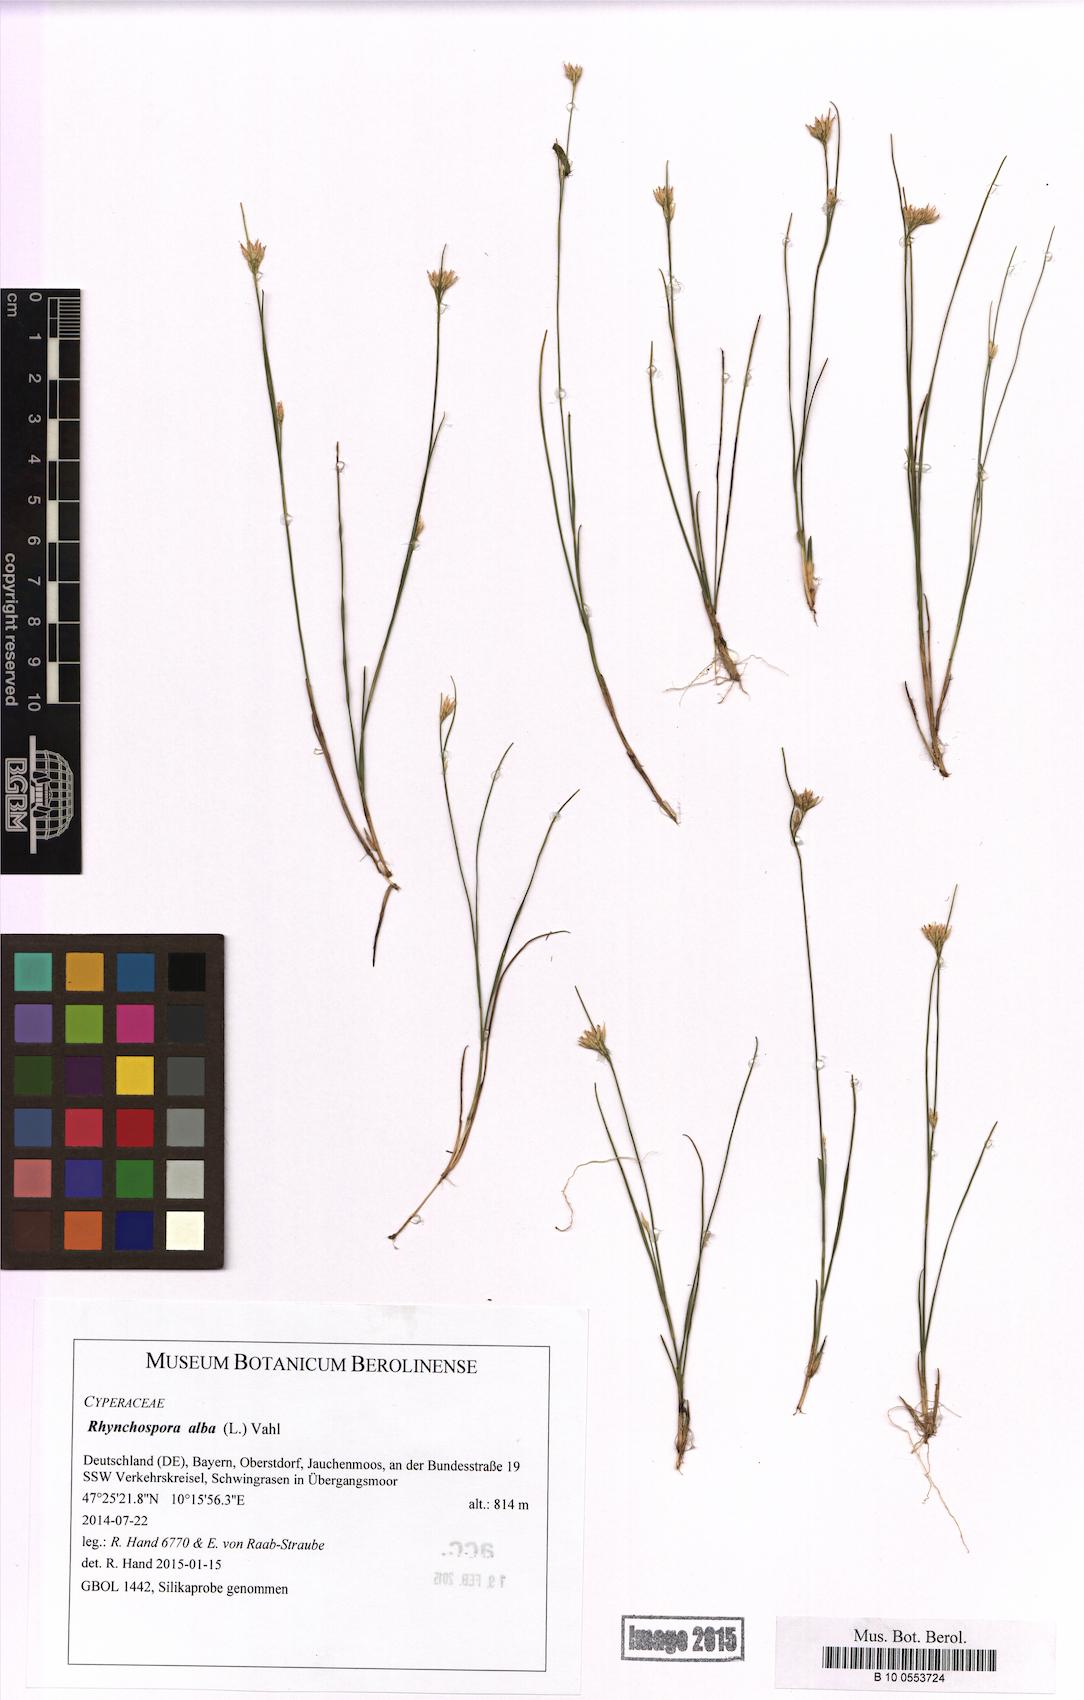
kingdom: Plantae
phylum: Tracheophyta
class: Liliopsida
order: Poales
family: Cyperaceae
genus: Rhynchospora
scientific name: Rhynchospora alba
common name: White beak-sedge
